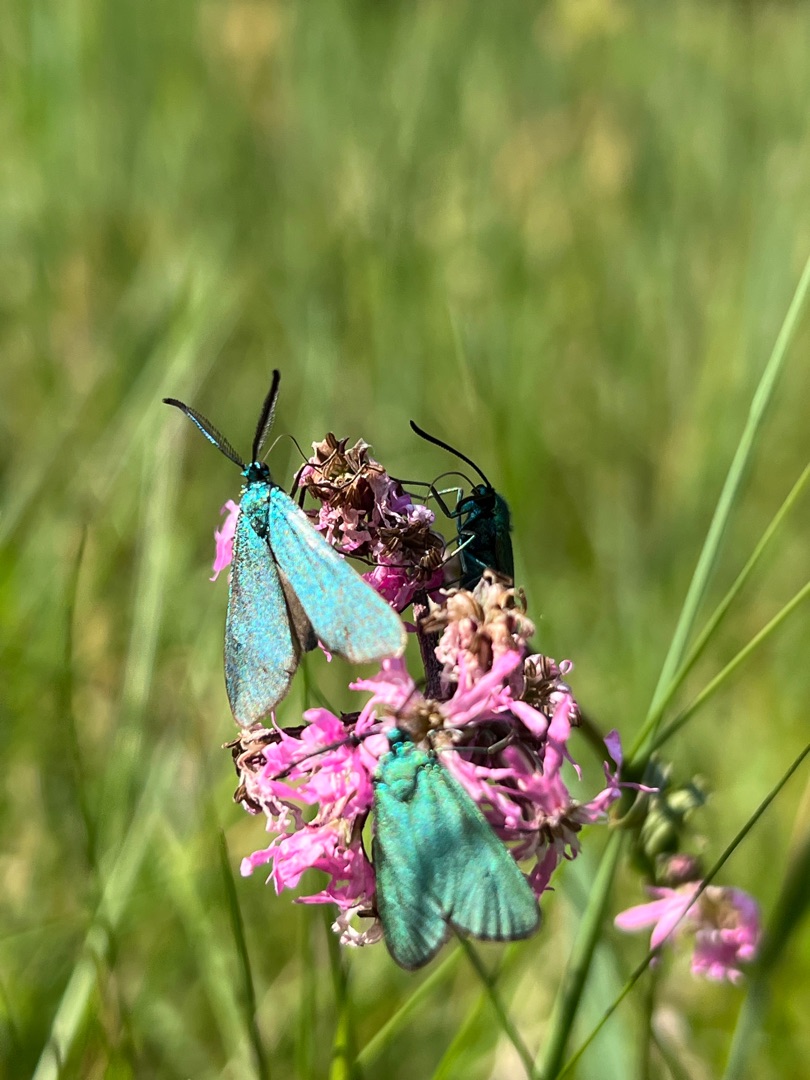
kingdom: Animalia
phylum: Arthropoda
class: Insecta
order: Lepidoptera
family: Zygaenidae
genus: Adscita
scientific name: Adscita statices
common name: Metalvinge
